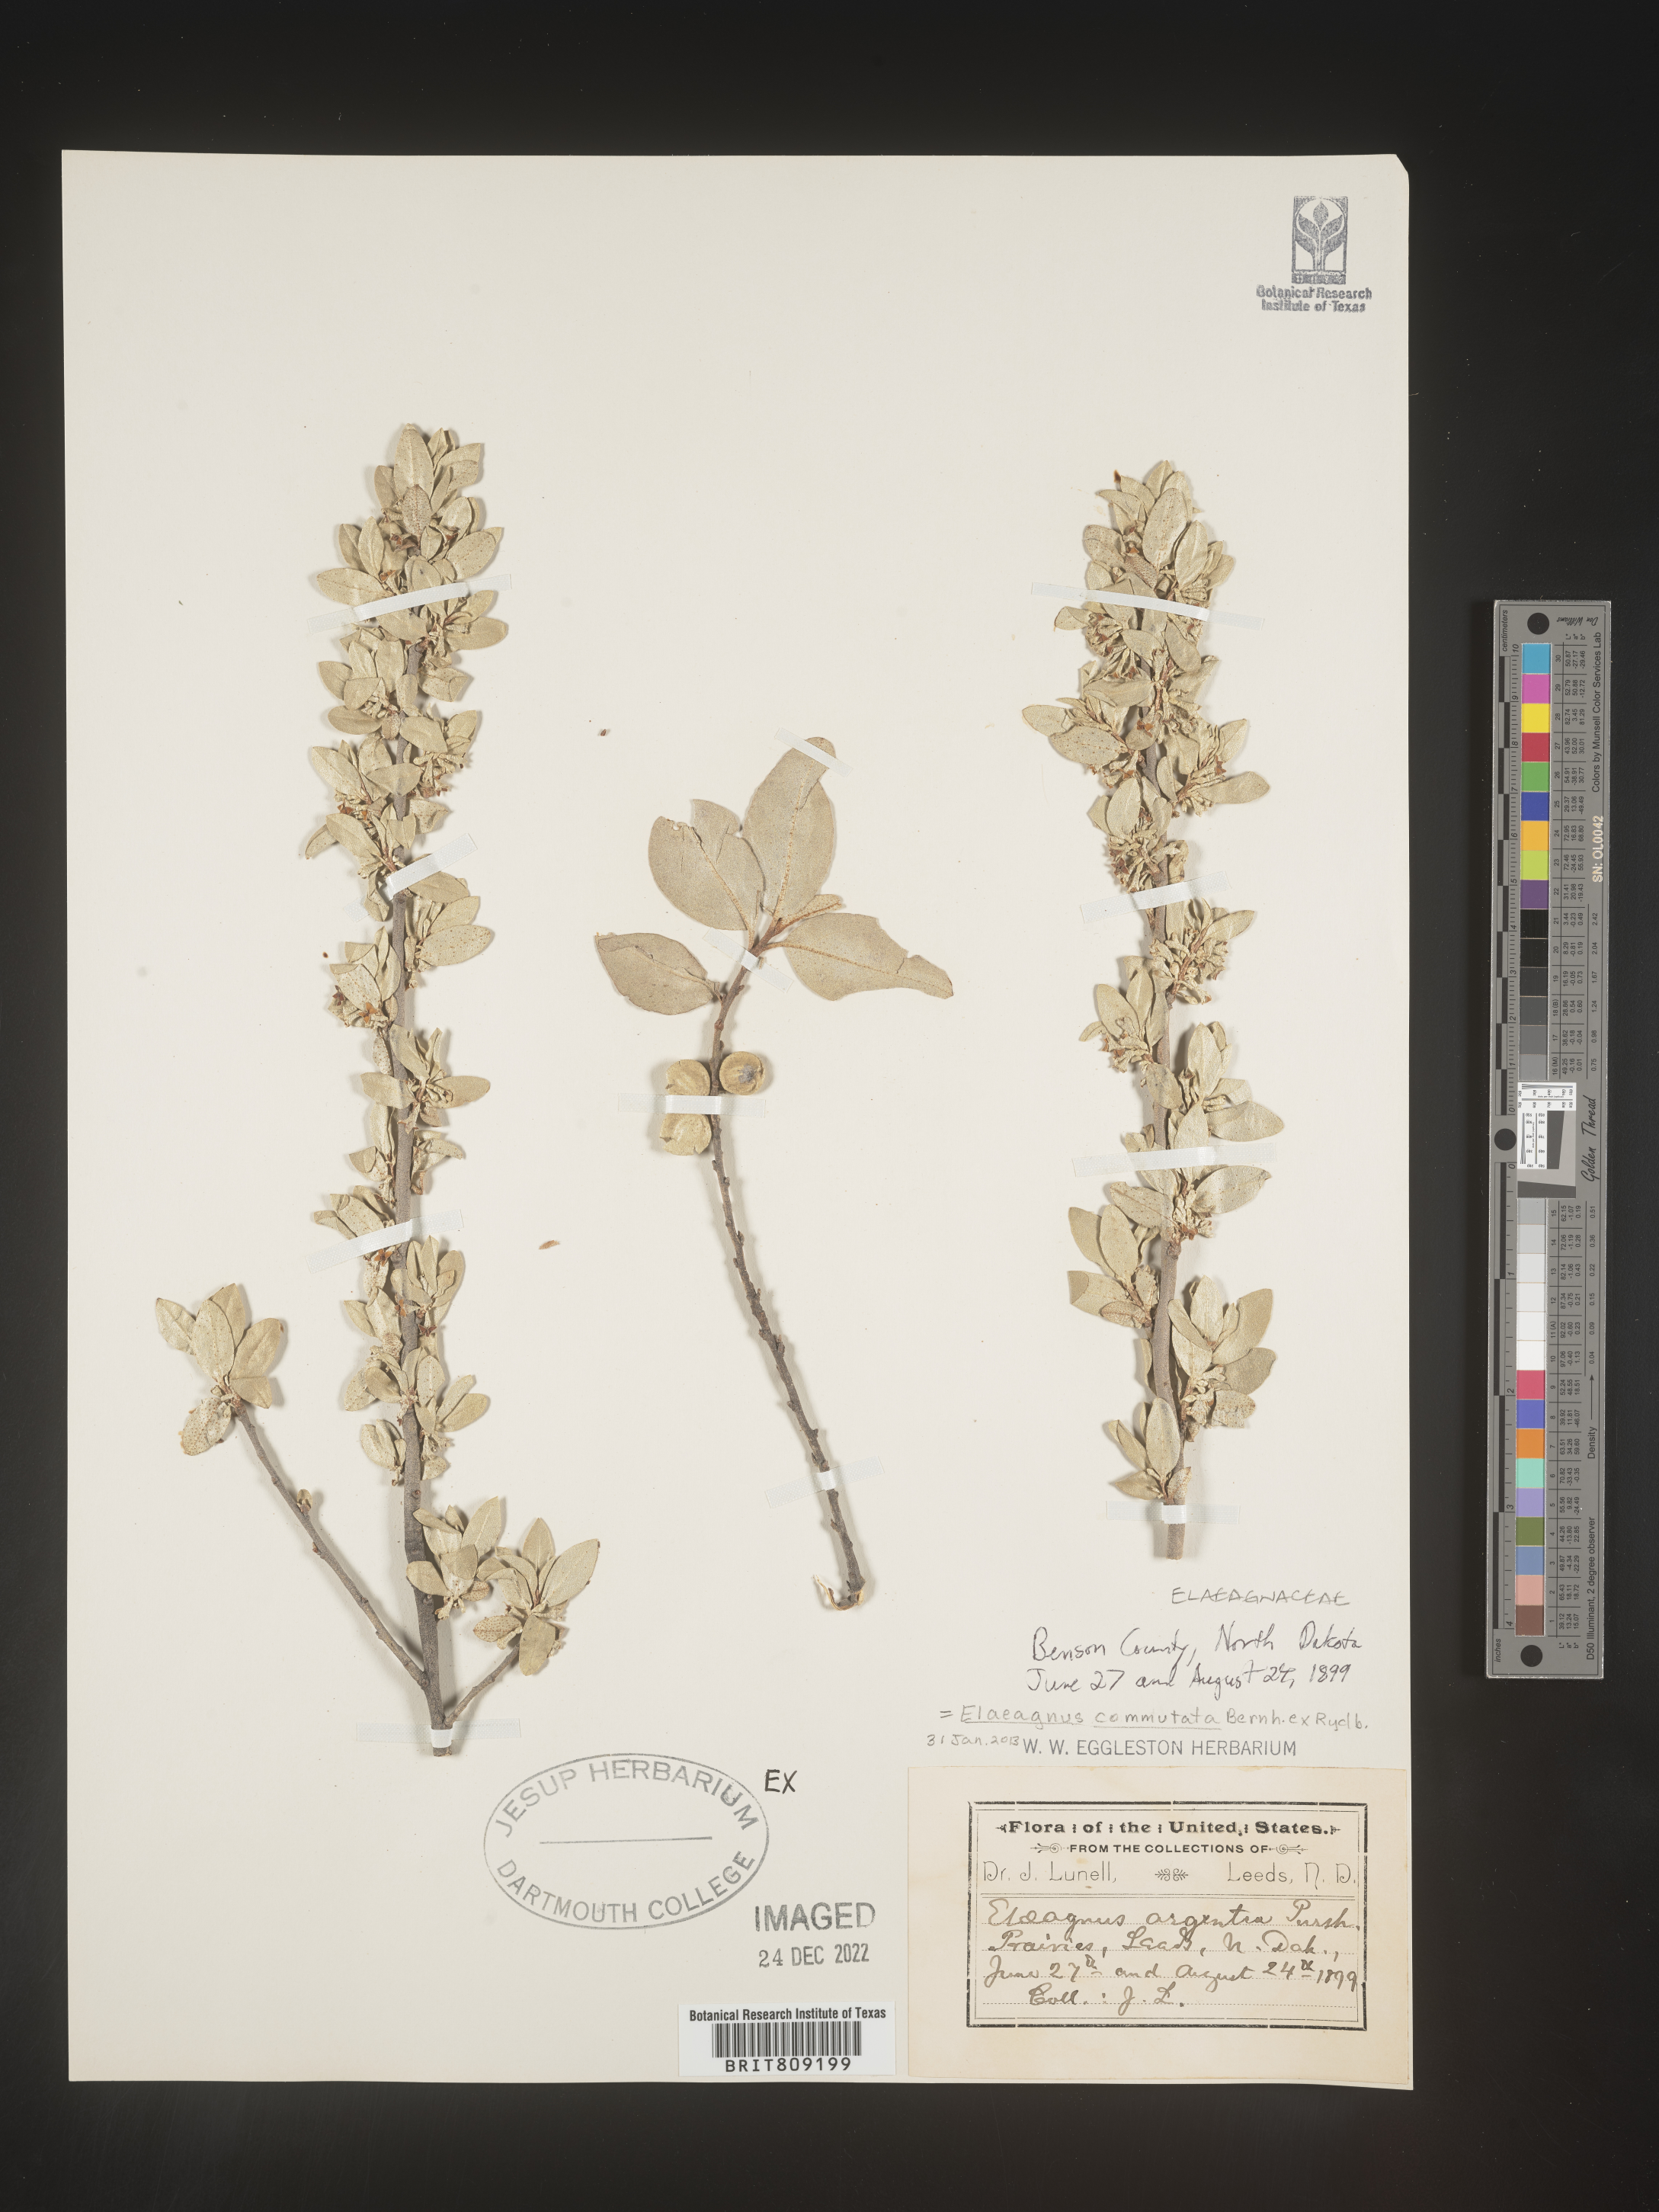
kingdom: Plantae
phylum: Tracheophyta
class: Magnoliopsida
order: Rosales
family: Elaeagnaceae
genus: Elaeagnus
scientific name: Elaeagnus
